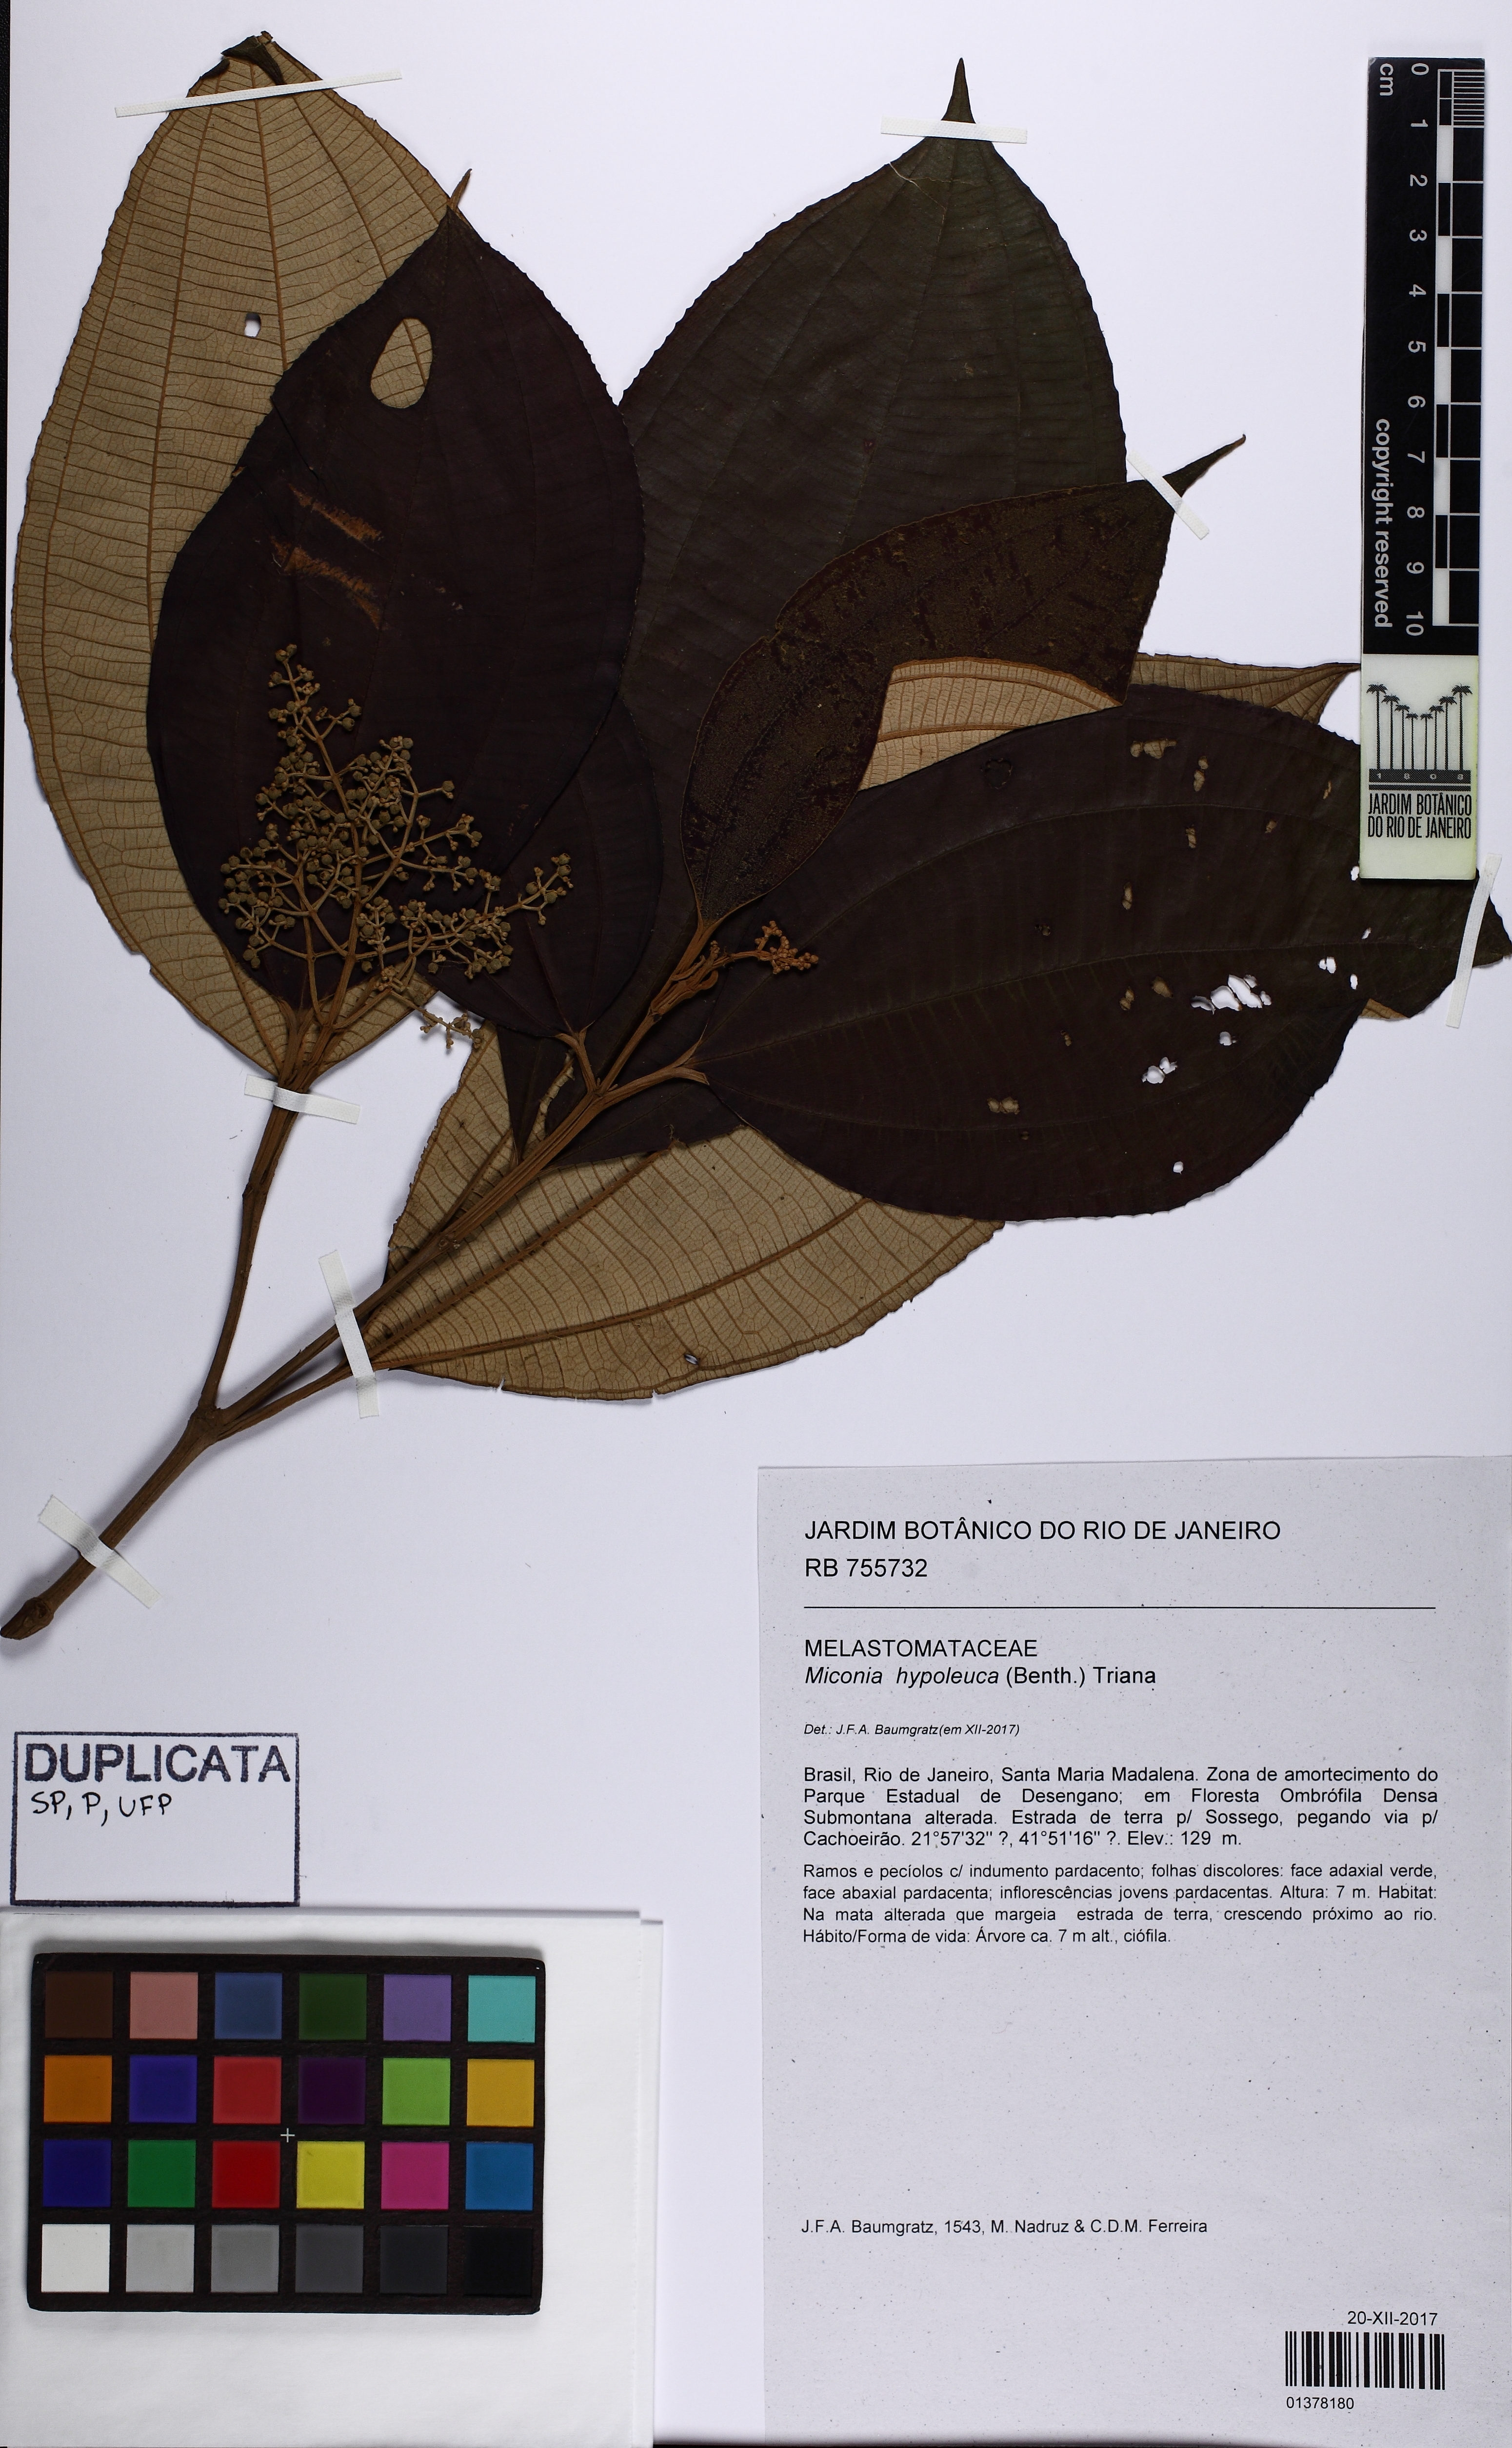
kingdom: Plantae
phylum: Tracheophyta
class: Magnoliopsida
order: Myrtales
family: Melastomataceae
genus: Miconia
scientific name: Miconia hypoleuca
